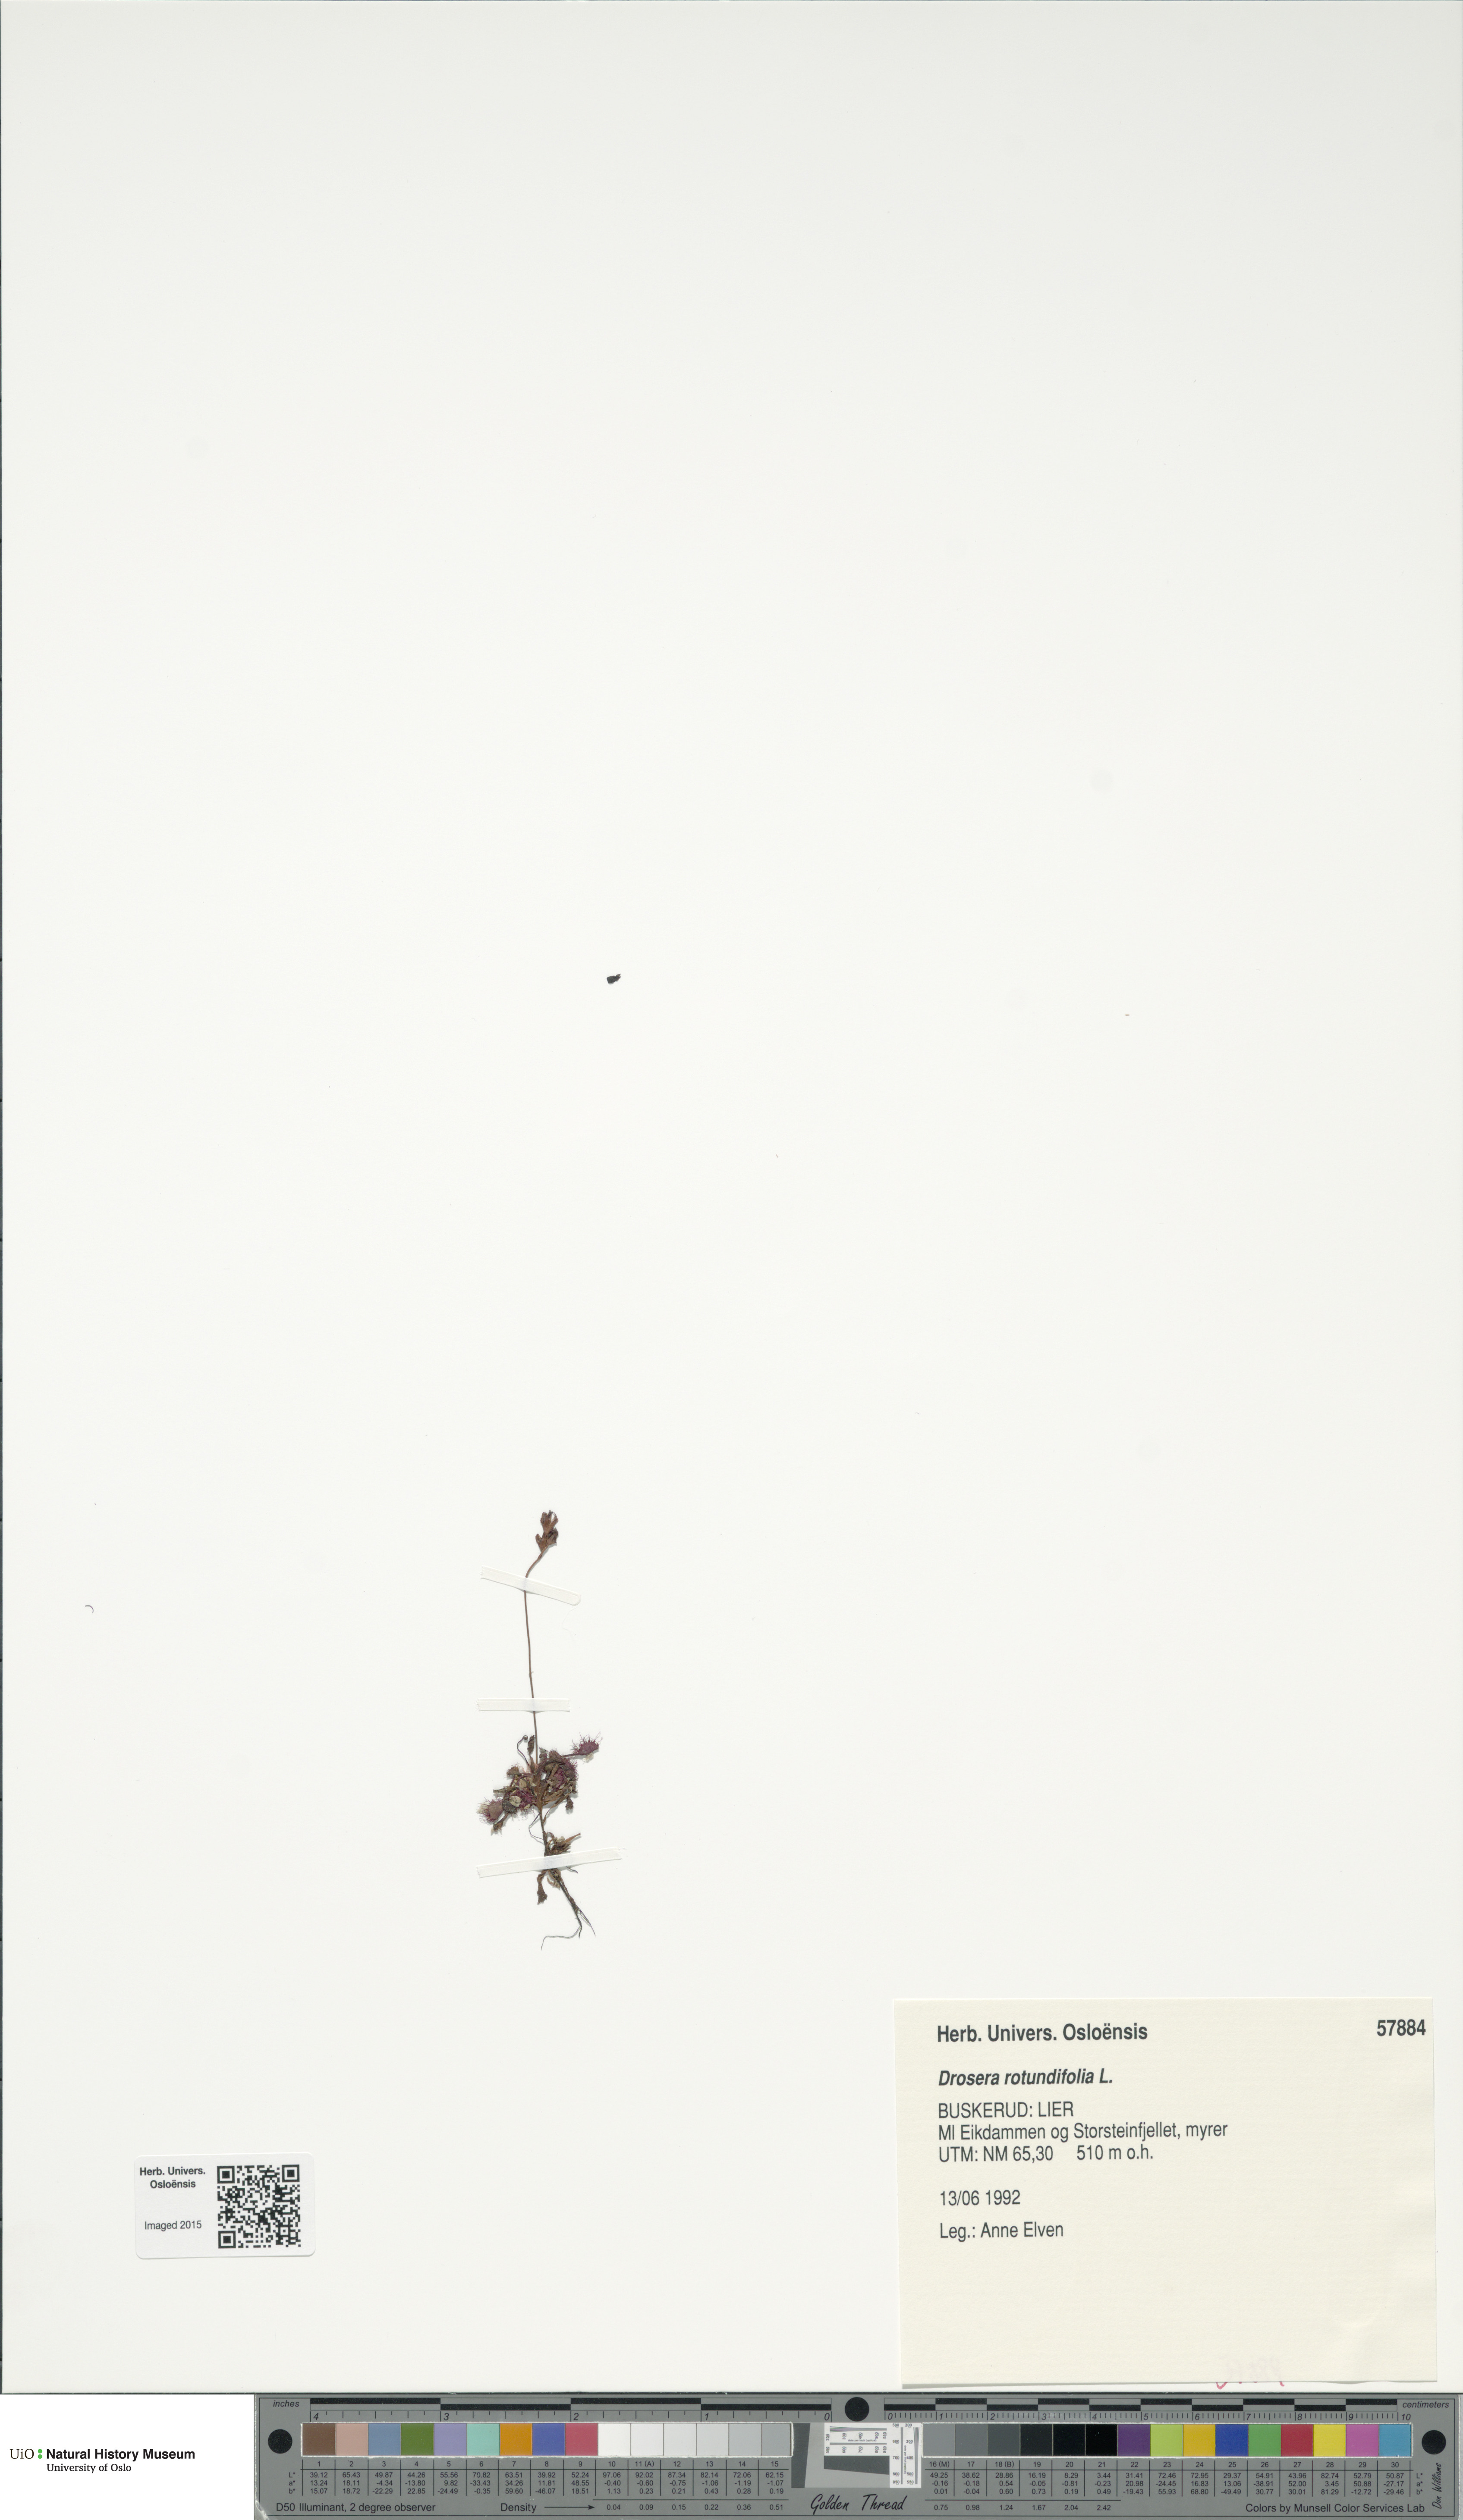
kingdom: Plantae
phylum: Tracheophyta
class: Magnoliopsida
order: Caryophyllales
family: Droseraceae
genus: Drosera
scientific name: Drosera rotundifolia
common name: Round-leaved sundew
